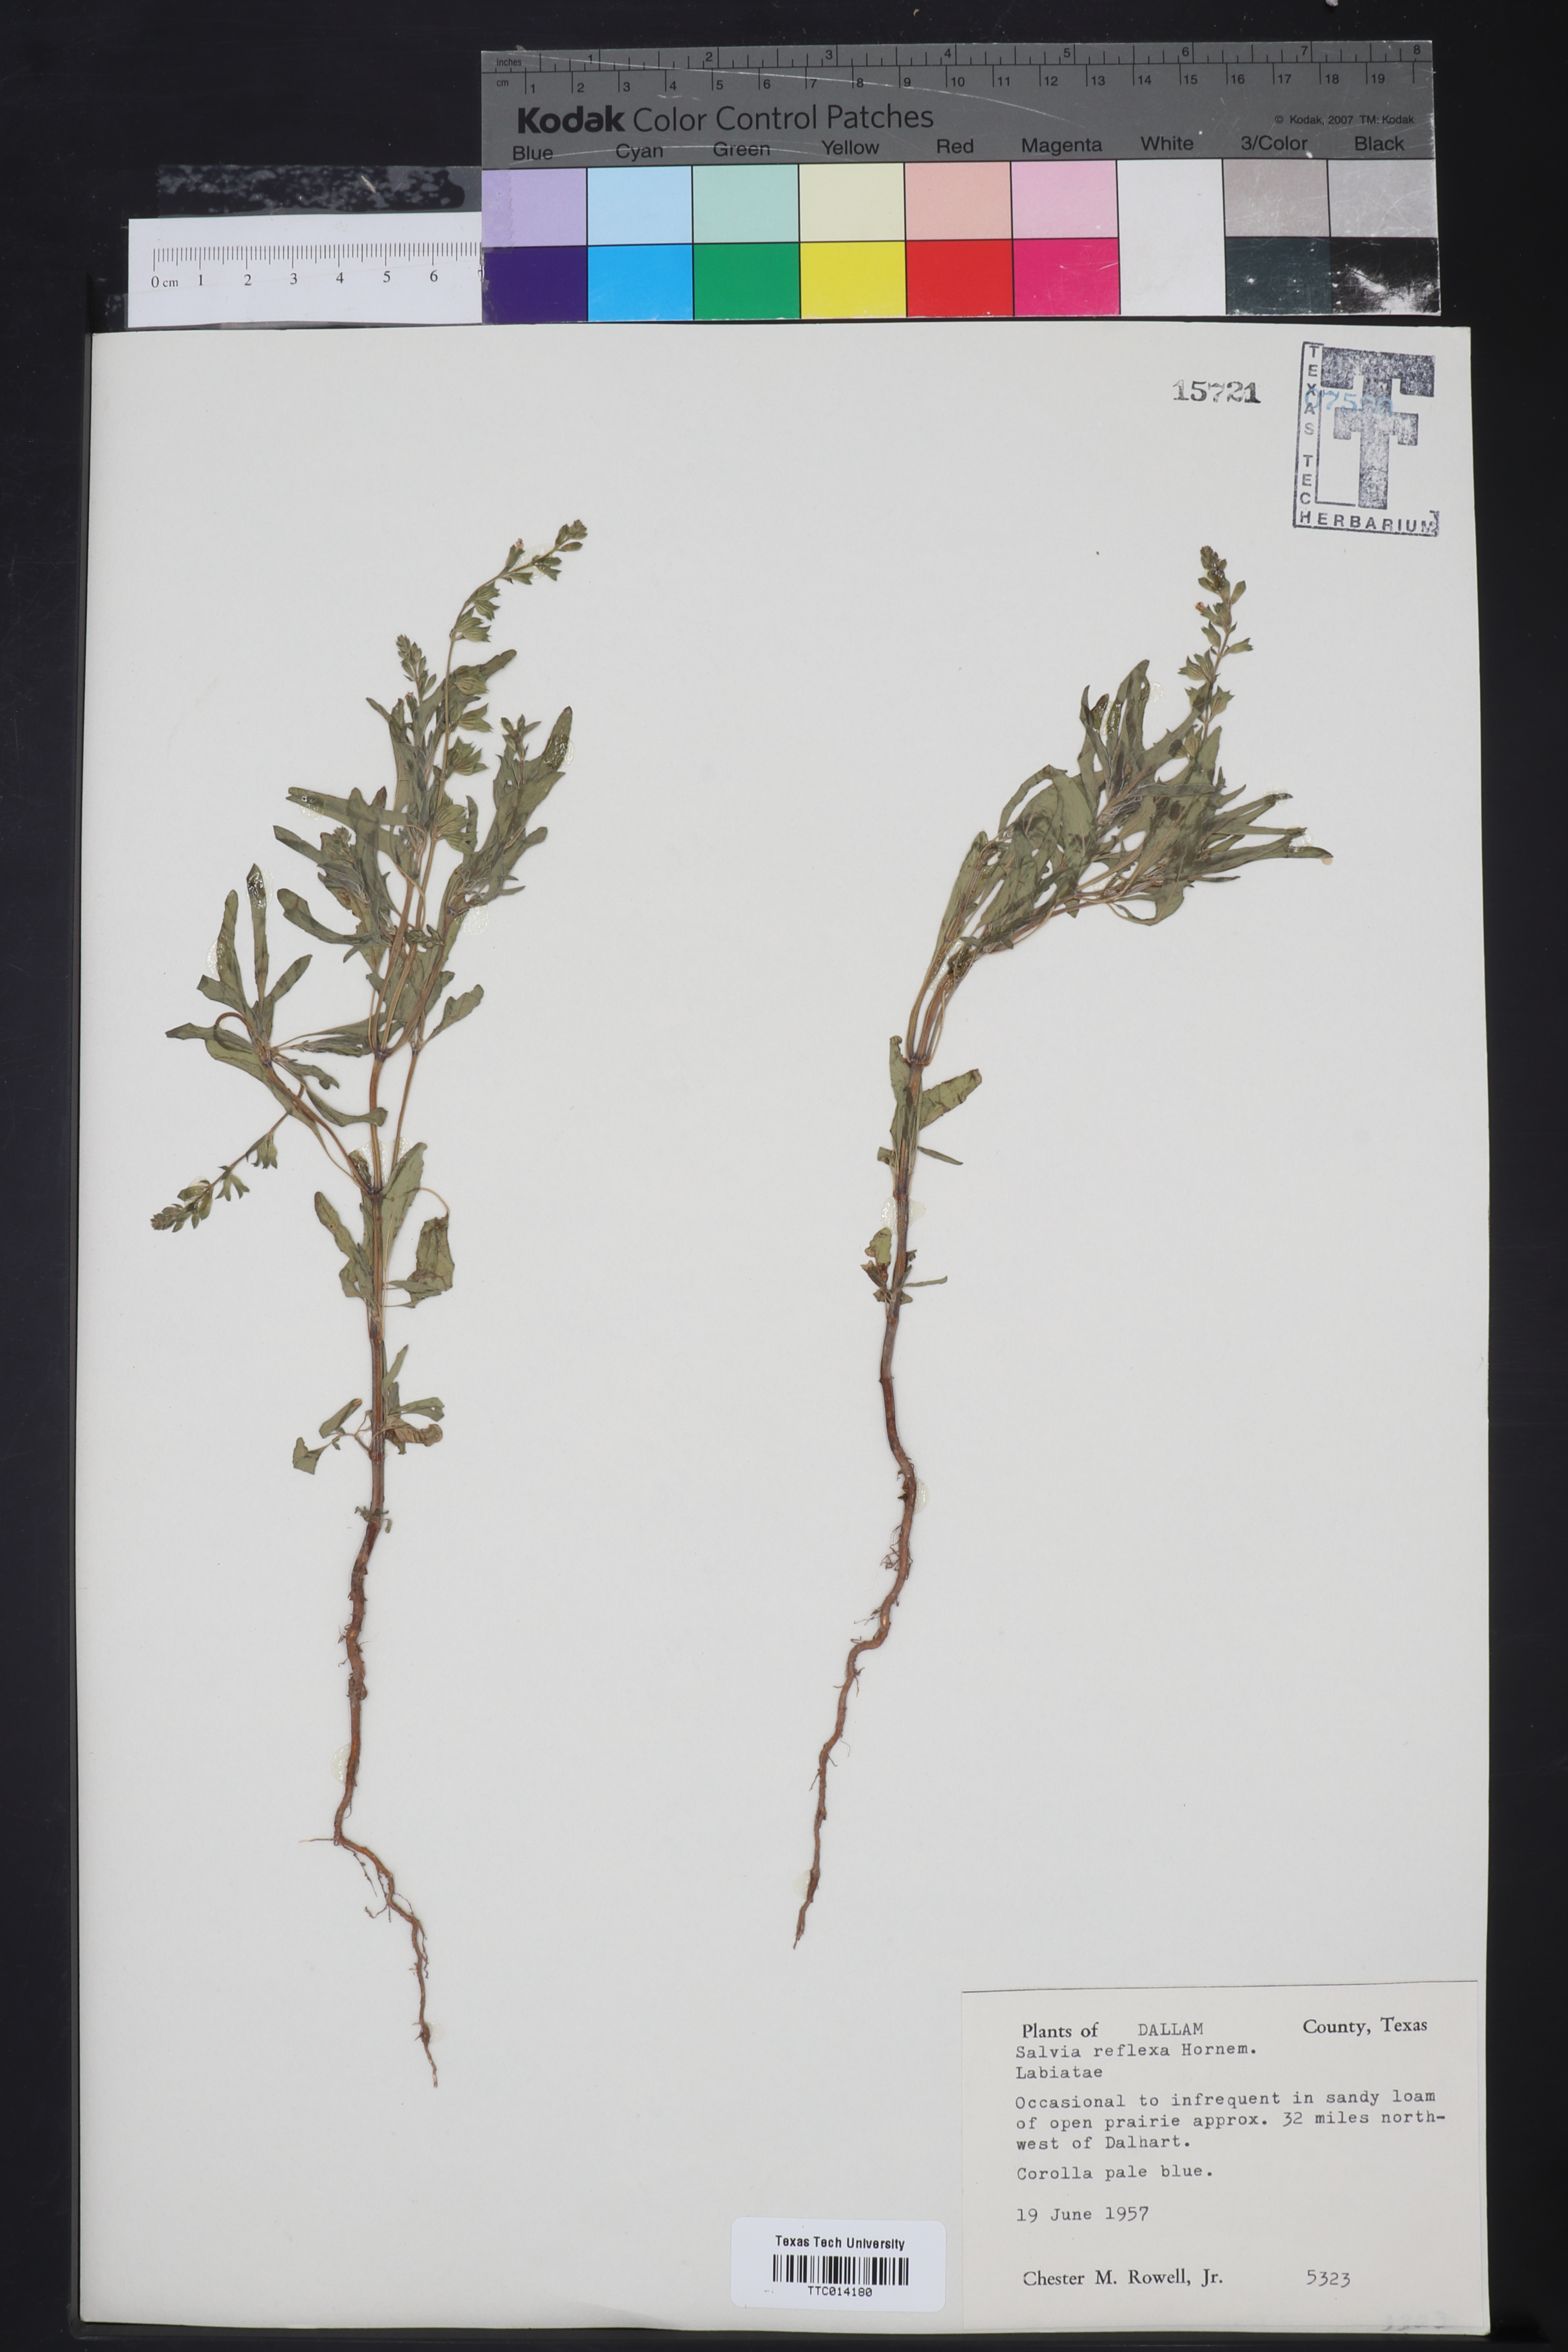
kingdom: Plantae
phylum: Tracheophyta
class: Magnoliopsida
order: Lamiales
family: Lamiaceae
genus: Salvia
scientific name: Salvia reflexa
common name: Mintweed
